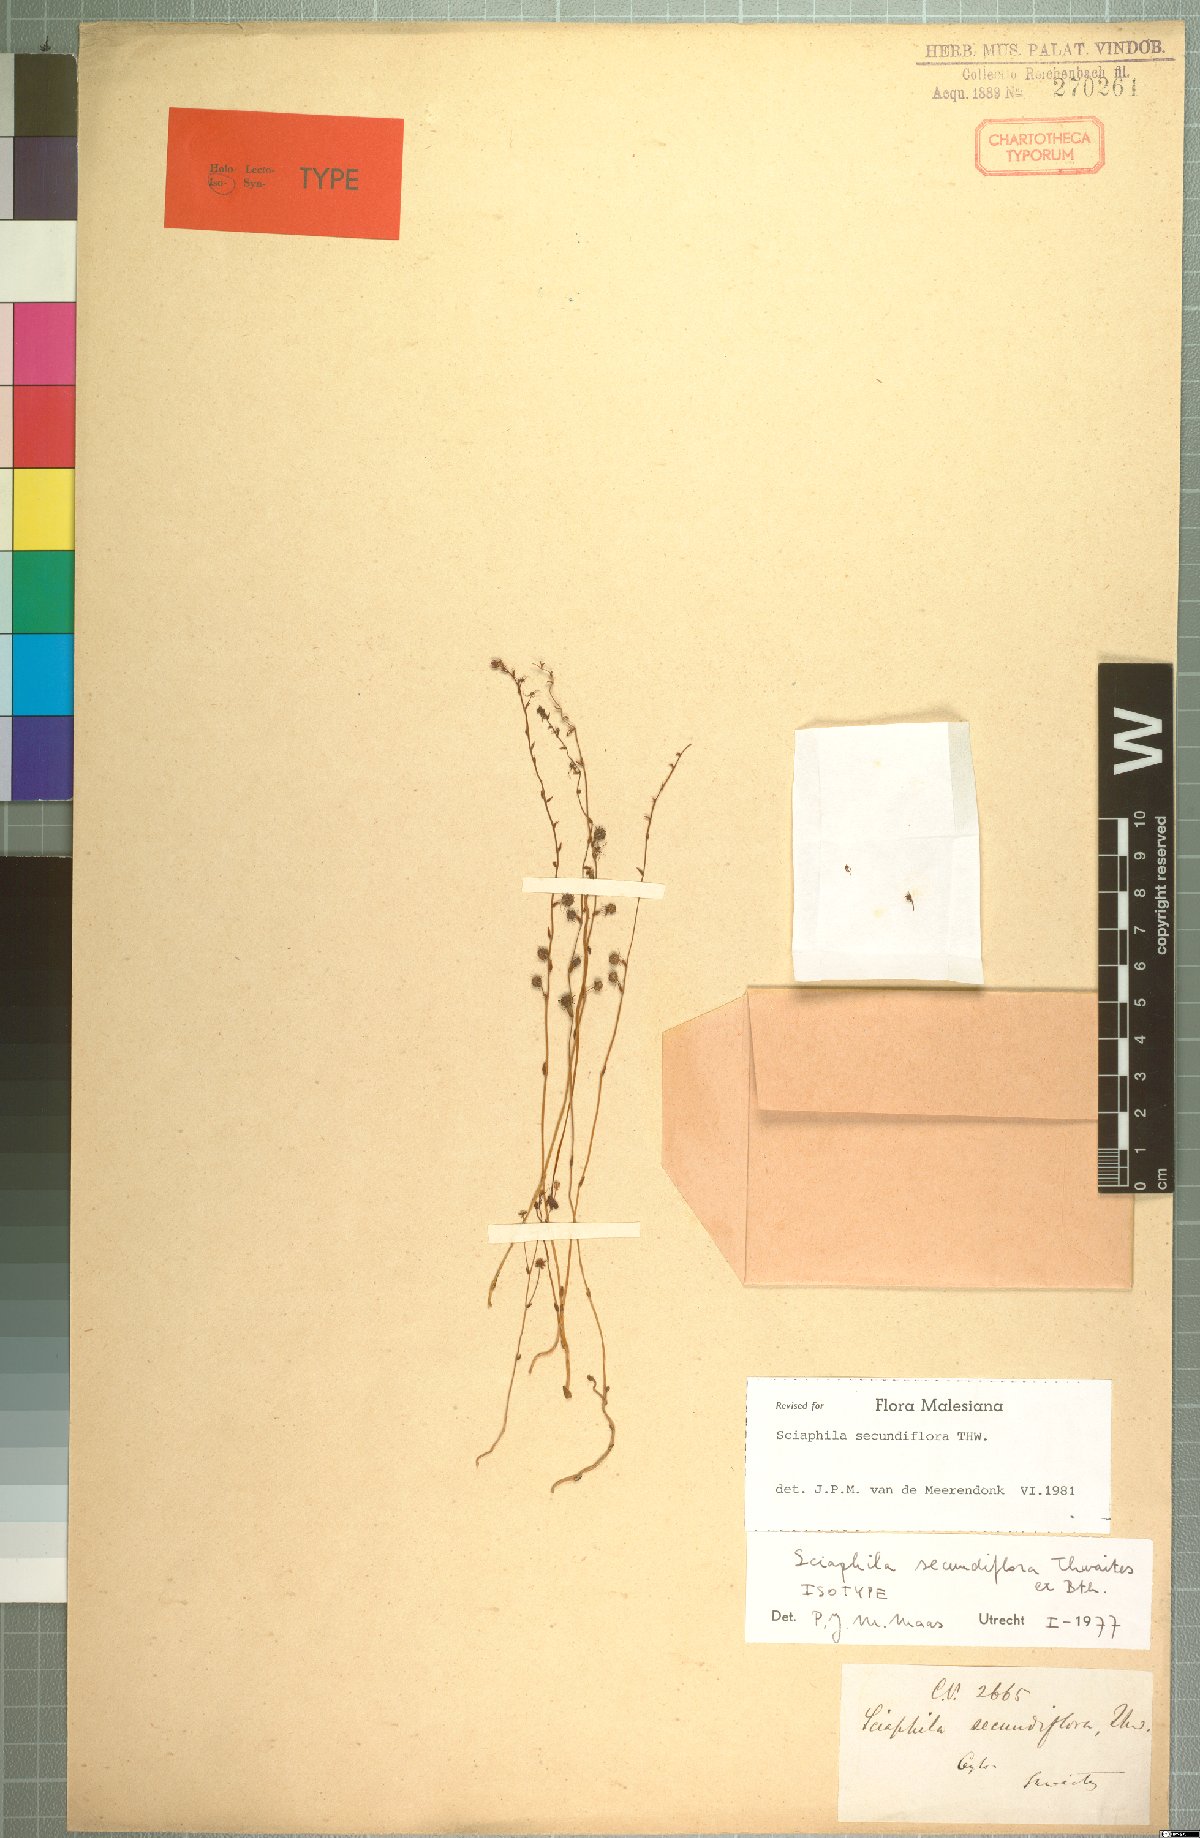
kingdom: Plantae
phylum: Tracheophyta
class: Liliopsida
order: Pandanales
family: Triuridaceae
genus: Sciaphila
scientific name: Sciaphila secundiflora
